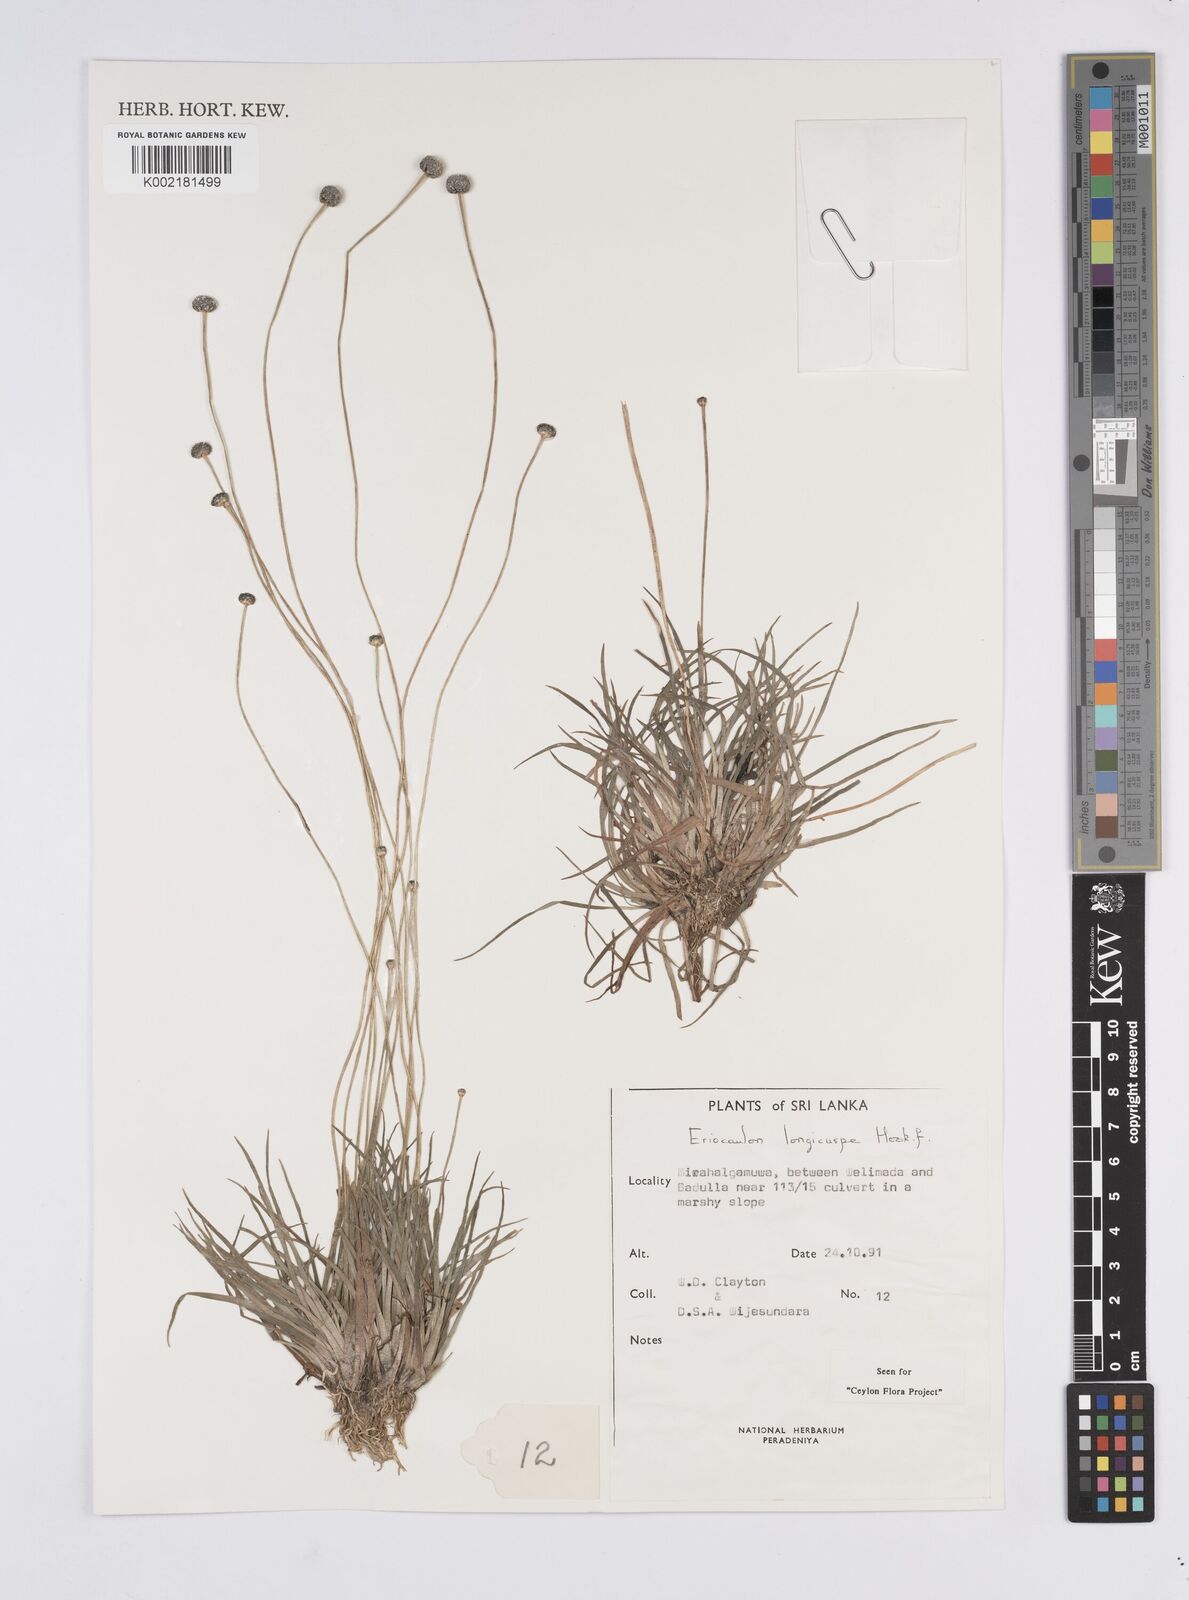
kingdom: Plantae
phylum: Tracheophyta
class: Liliopsida
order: Poales
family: Eriocaulaceae
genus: Eriocaulon
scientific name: Eriocaulon longicuspe
